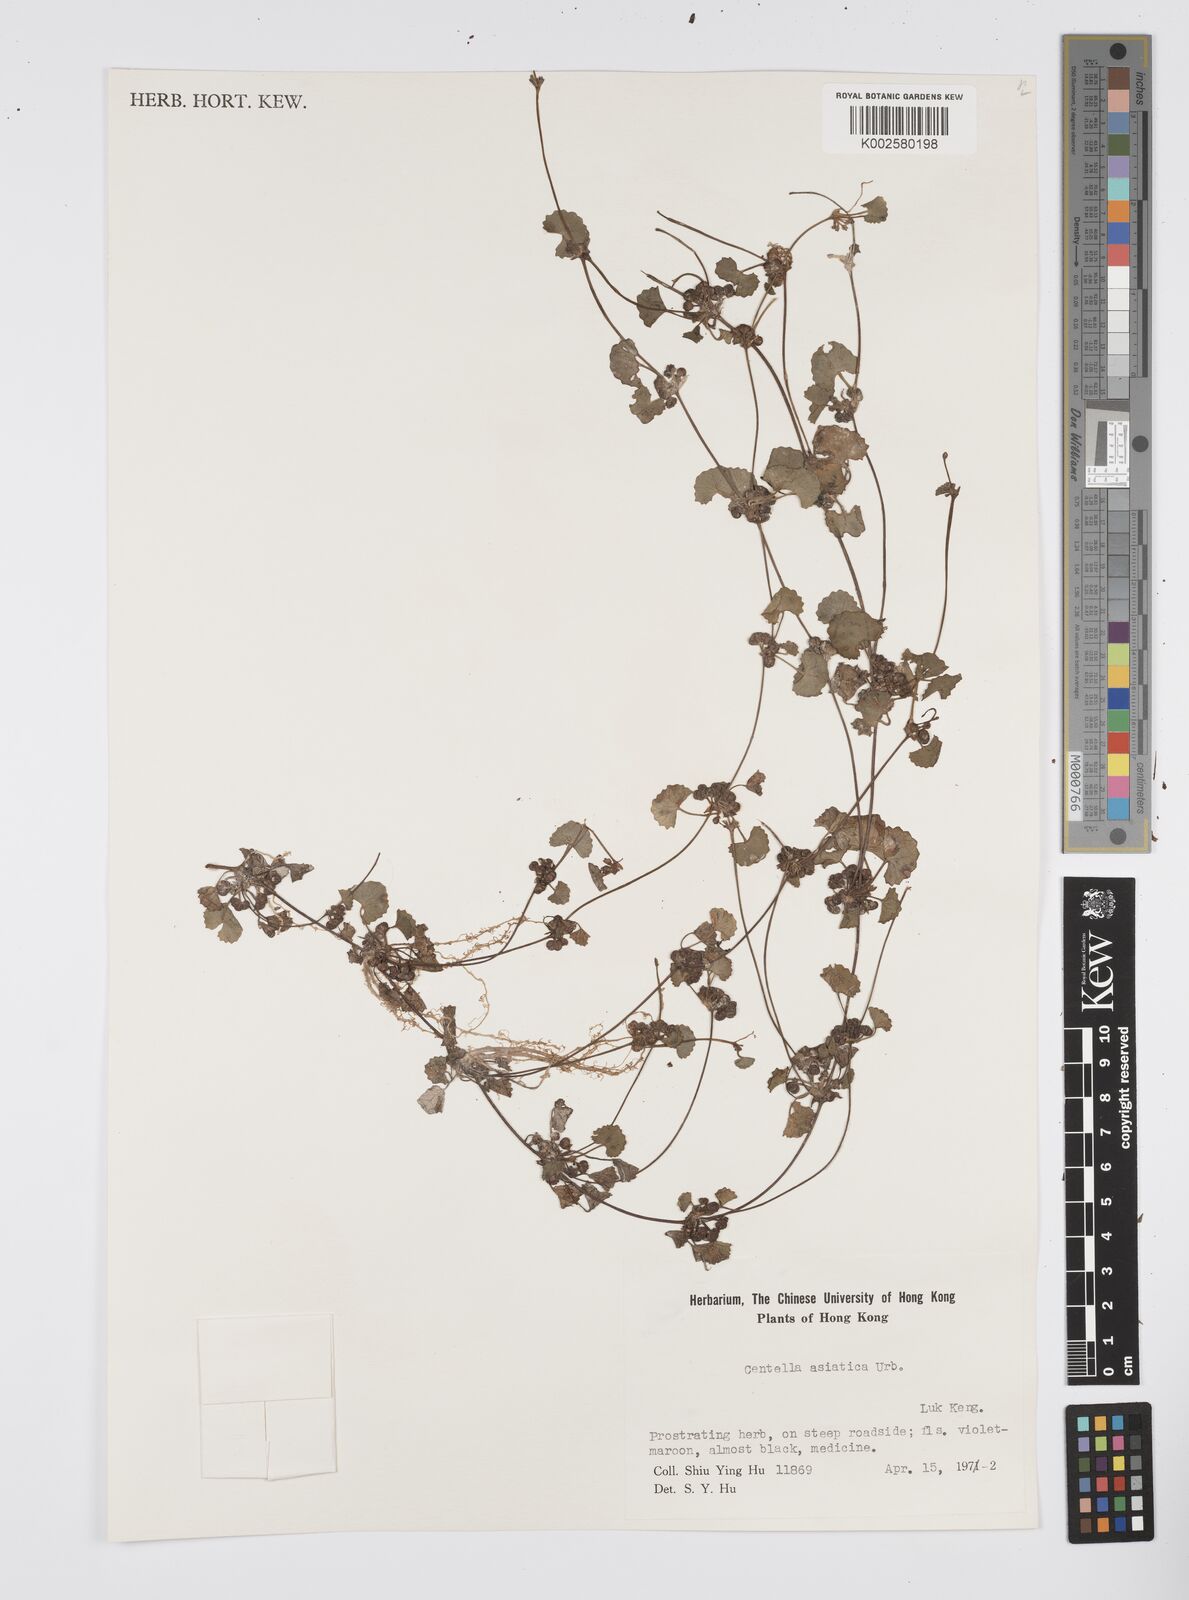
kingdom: Plantae
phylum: Tracheophyta
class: Magnoliopsida
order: Apiales
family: Apiaceae
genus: Centella
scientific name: Centella
